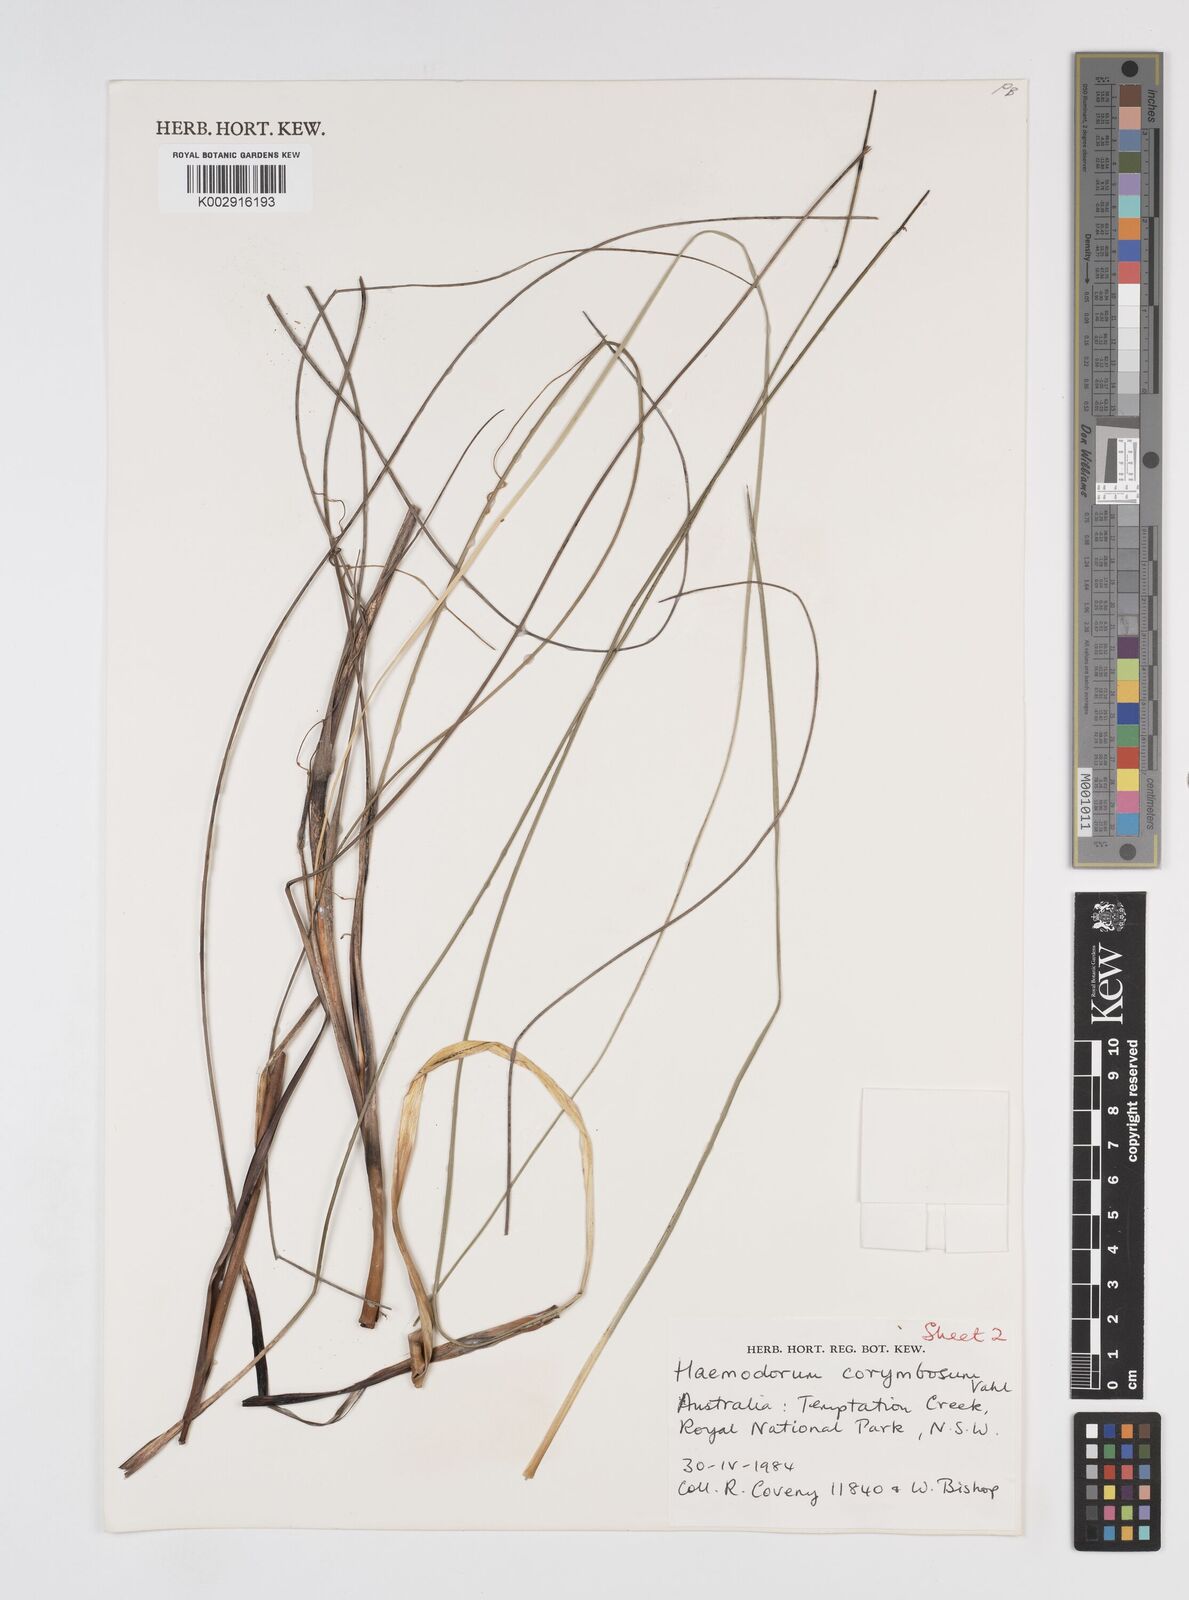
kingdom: Plantae
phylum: Tracheophyta
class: Liliopsida
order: Commelinales
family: Haemodoraceae
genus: Haemodorum
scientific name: Haemodorum corymbosum
